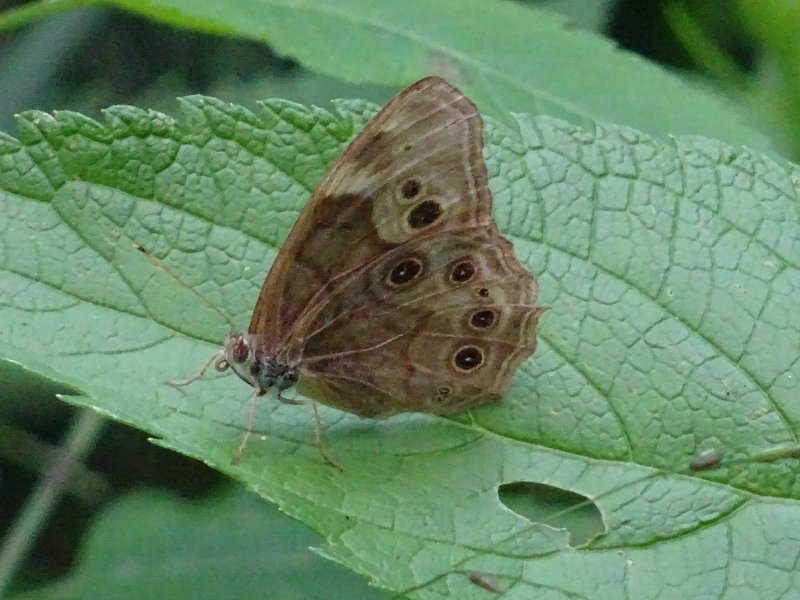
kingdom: Animalia
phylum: Arthropoda
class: Insecta
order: Lepidoptera
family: Nymphalidae
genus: Lethe
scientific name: Lethe anthedon
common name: Northern Pearly-Eye
